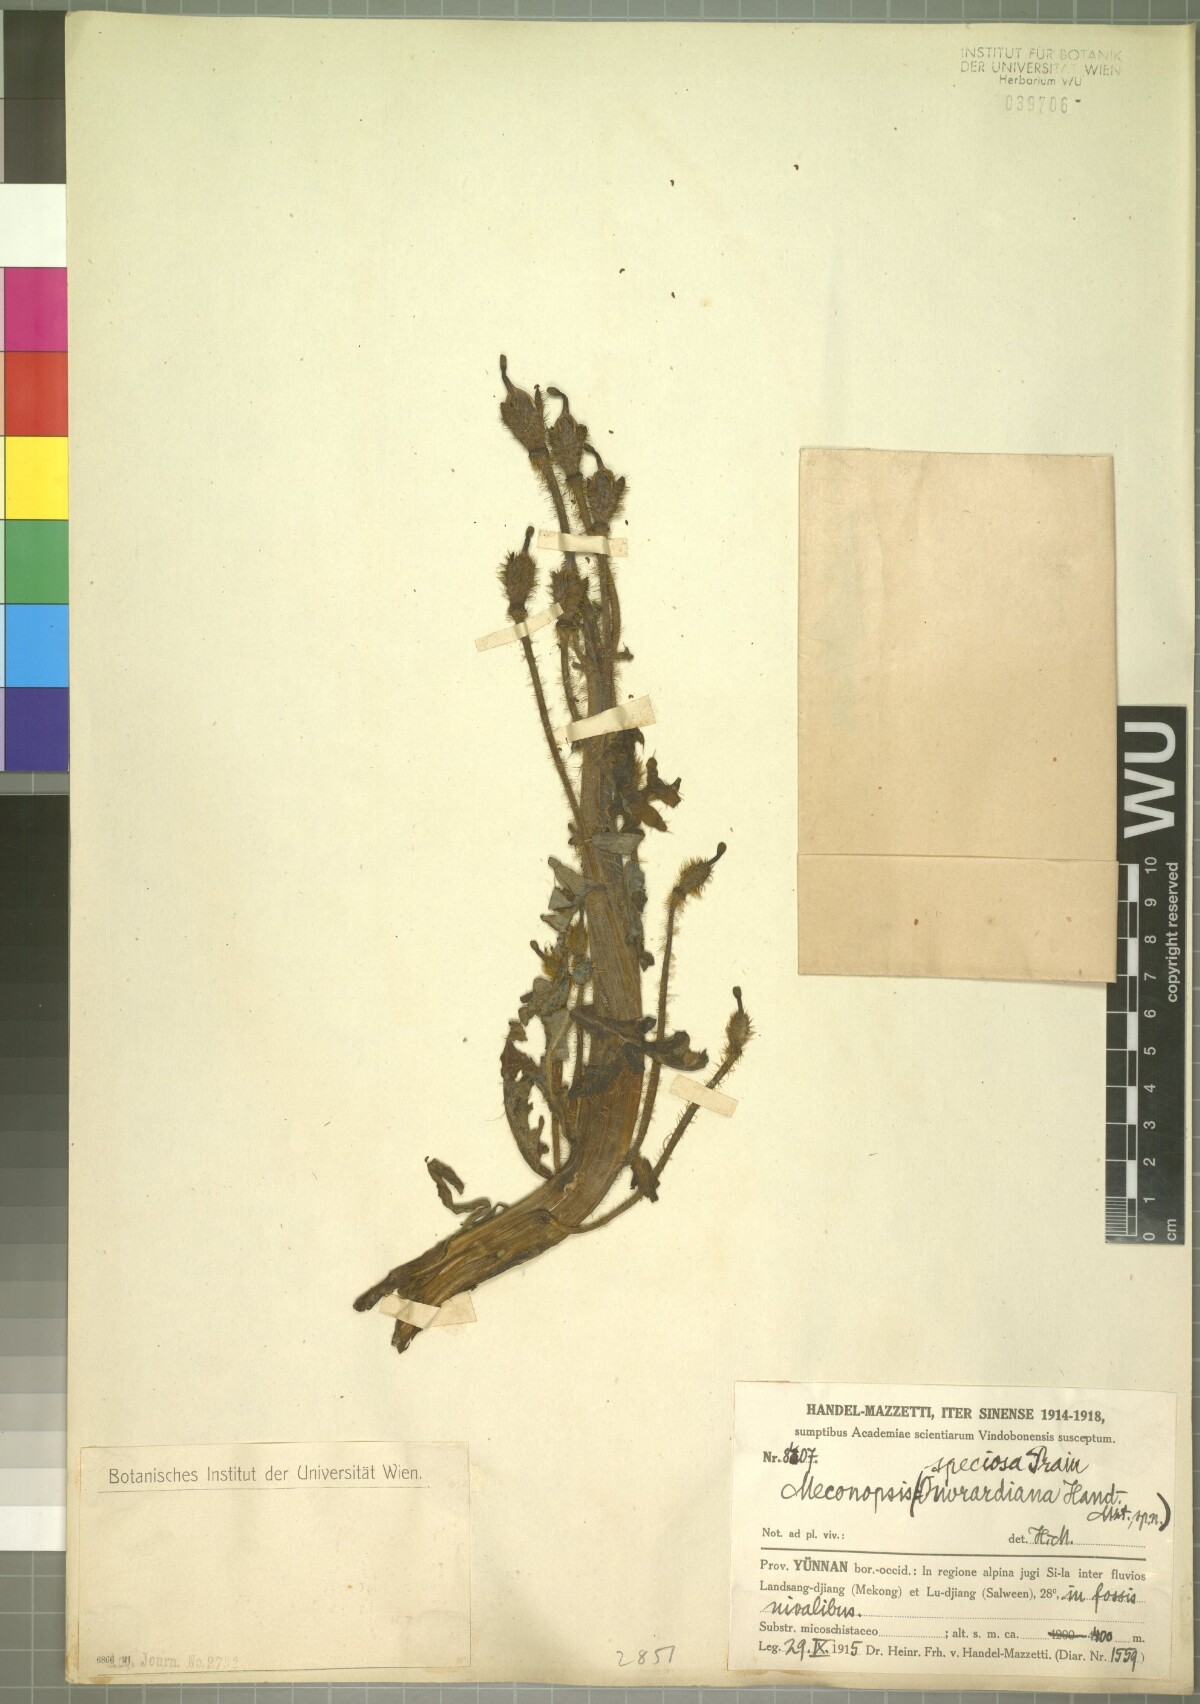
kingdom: Plantae
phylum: Tracheophyta
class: Magnoliopsida
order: Ranunculales
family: Papaveraceae
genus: Meconopsis
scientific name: Meconopsis speciosa
